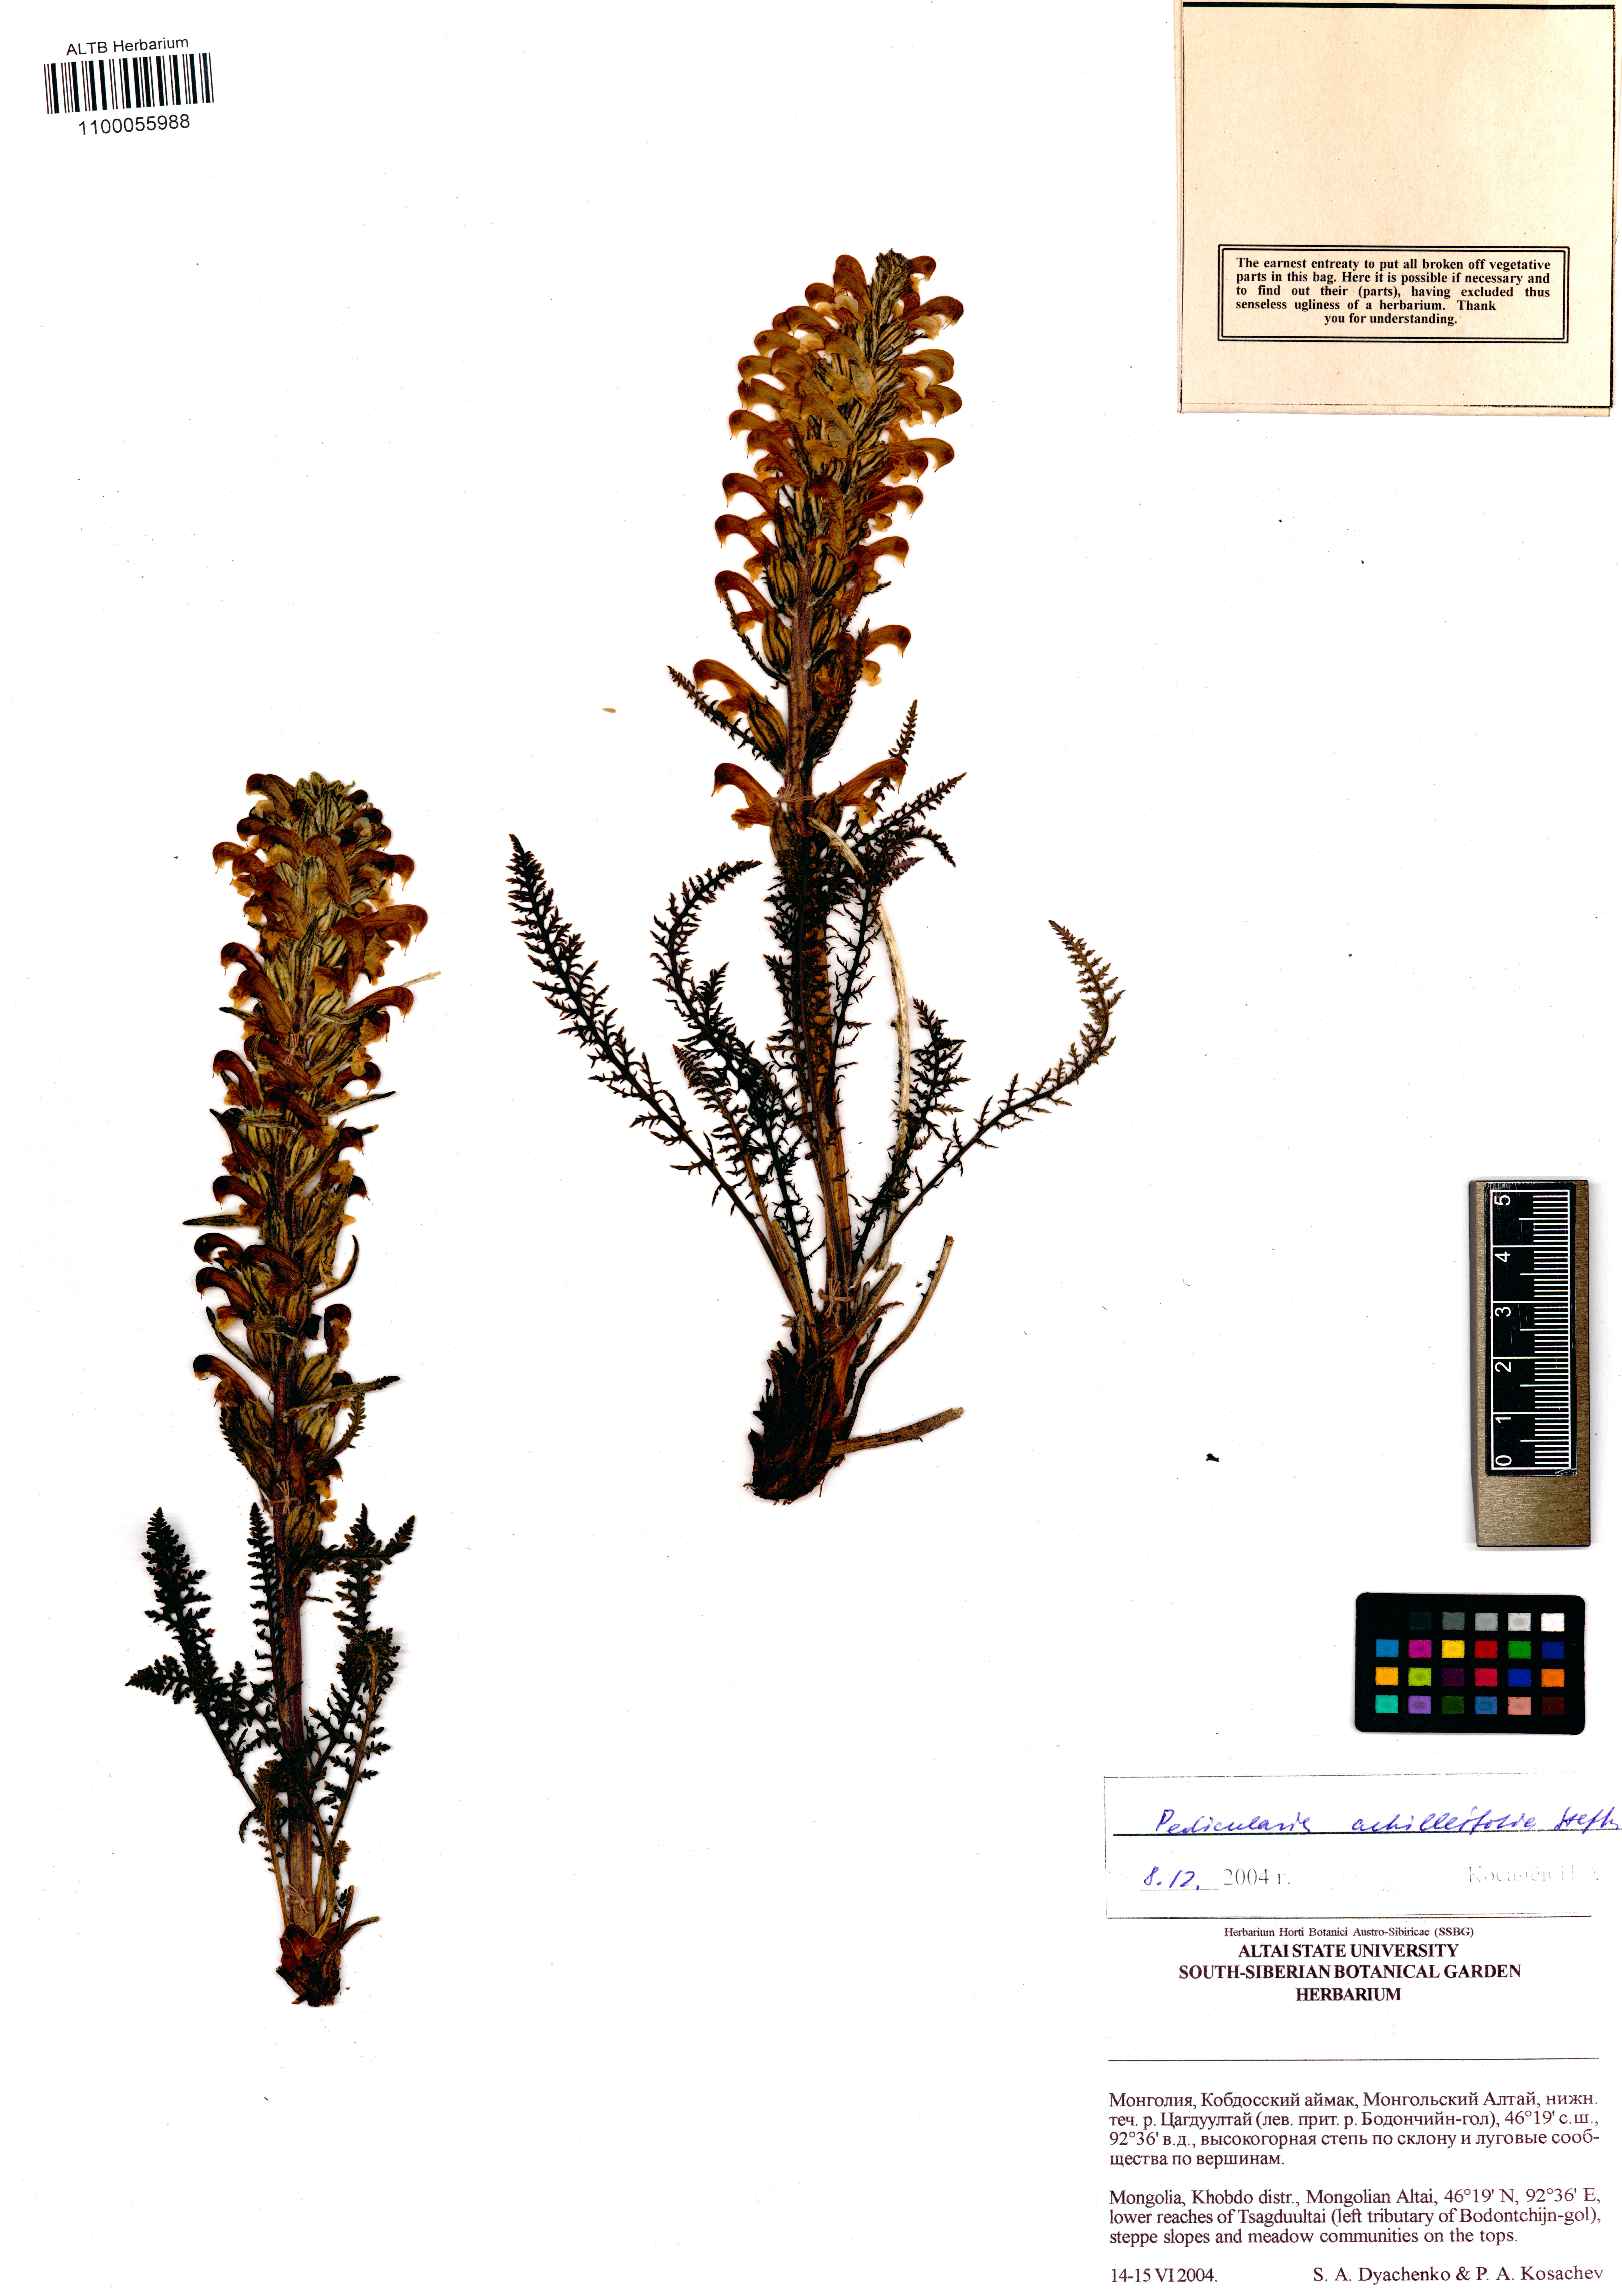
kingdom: Plantae
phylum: Tracheophyta
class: Magnoliopsida
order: Lamiales
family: Orobanchaceae
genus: Pedicularis
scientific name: Pedicularis achilleifolia
